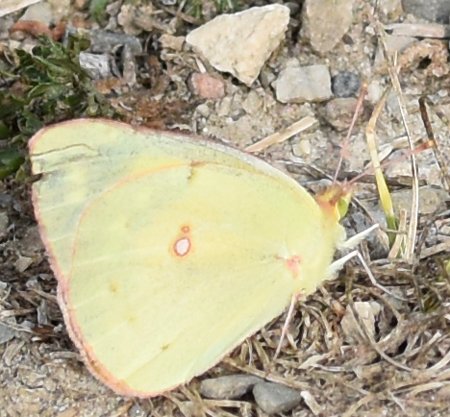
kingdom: Animalia
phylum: Arthropoda
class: Insecta
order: Lepidoptera
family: Pieridae
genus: Colias
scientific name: Colias eurytheme
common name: Orange Sulphur
